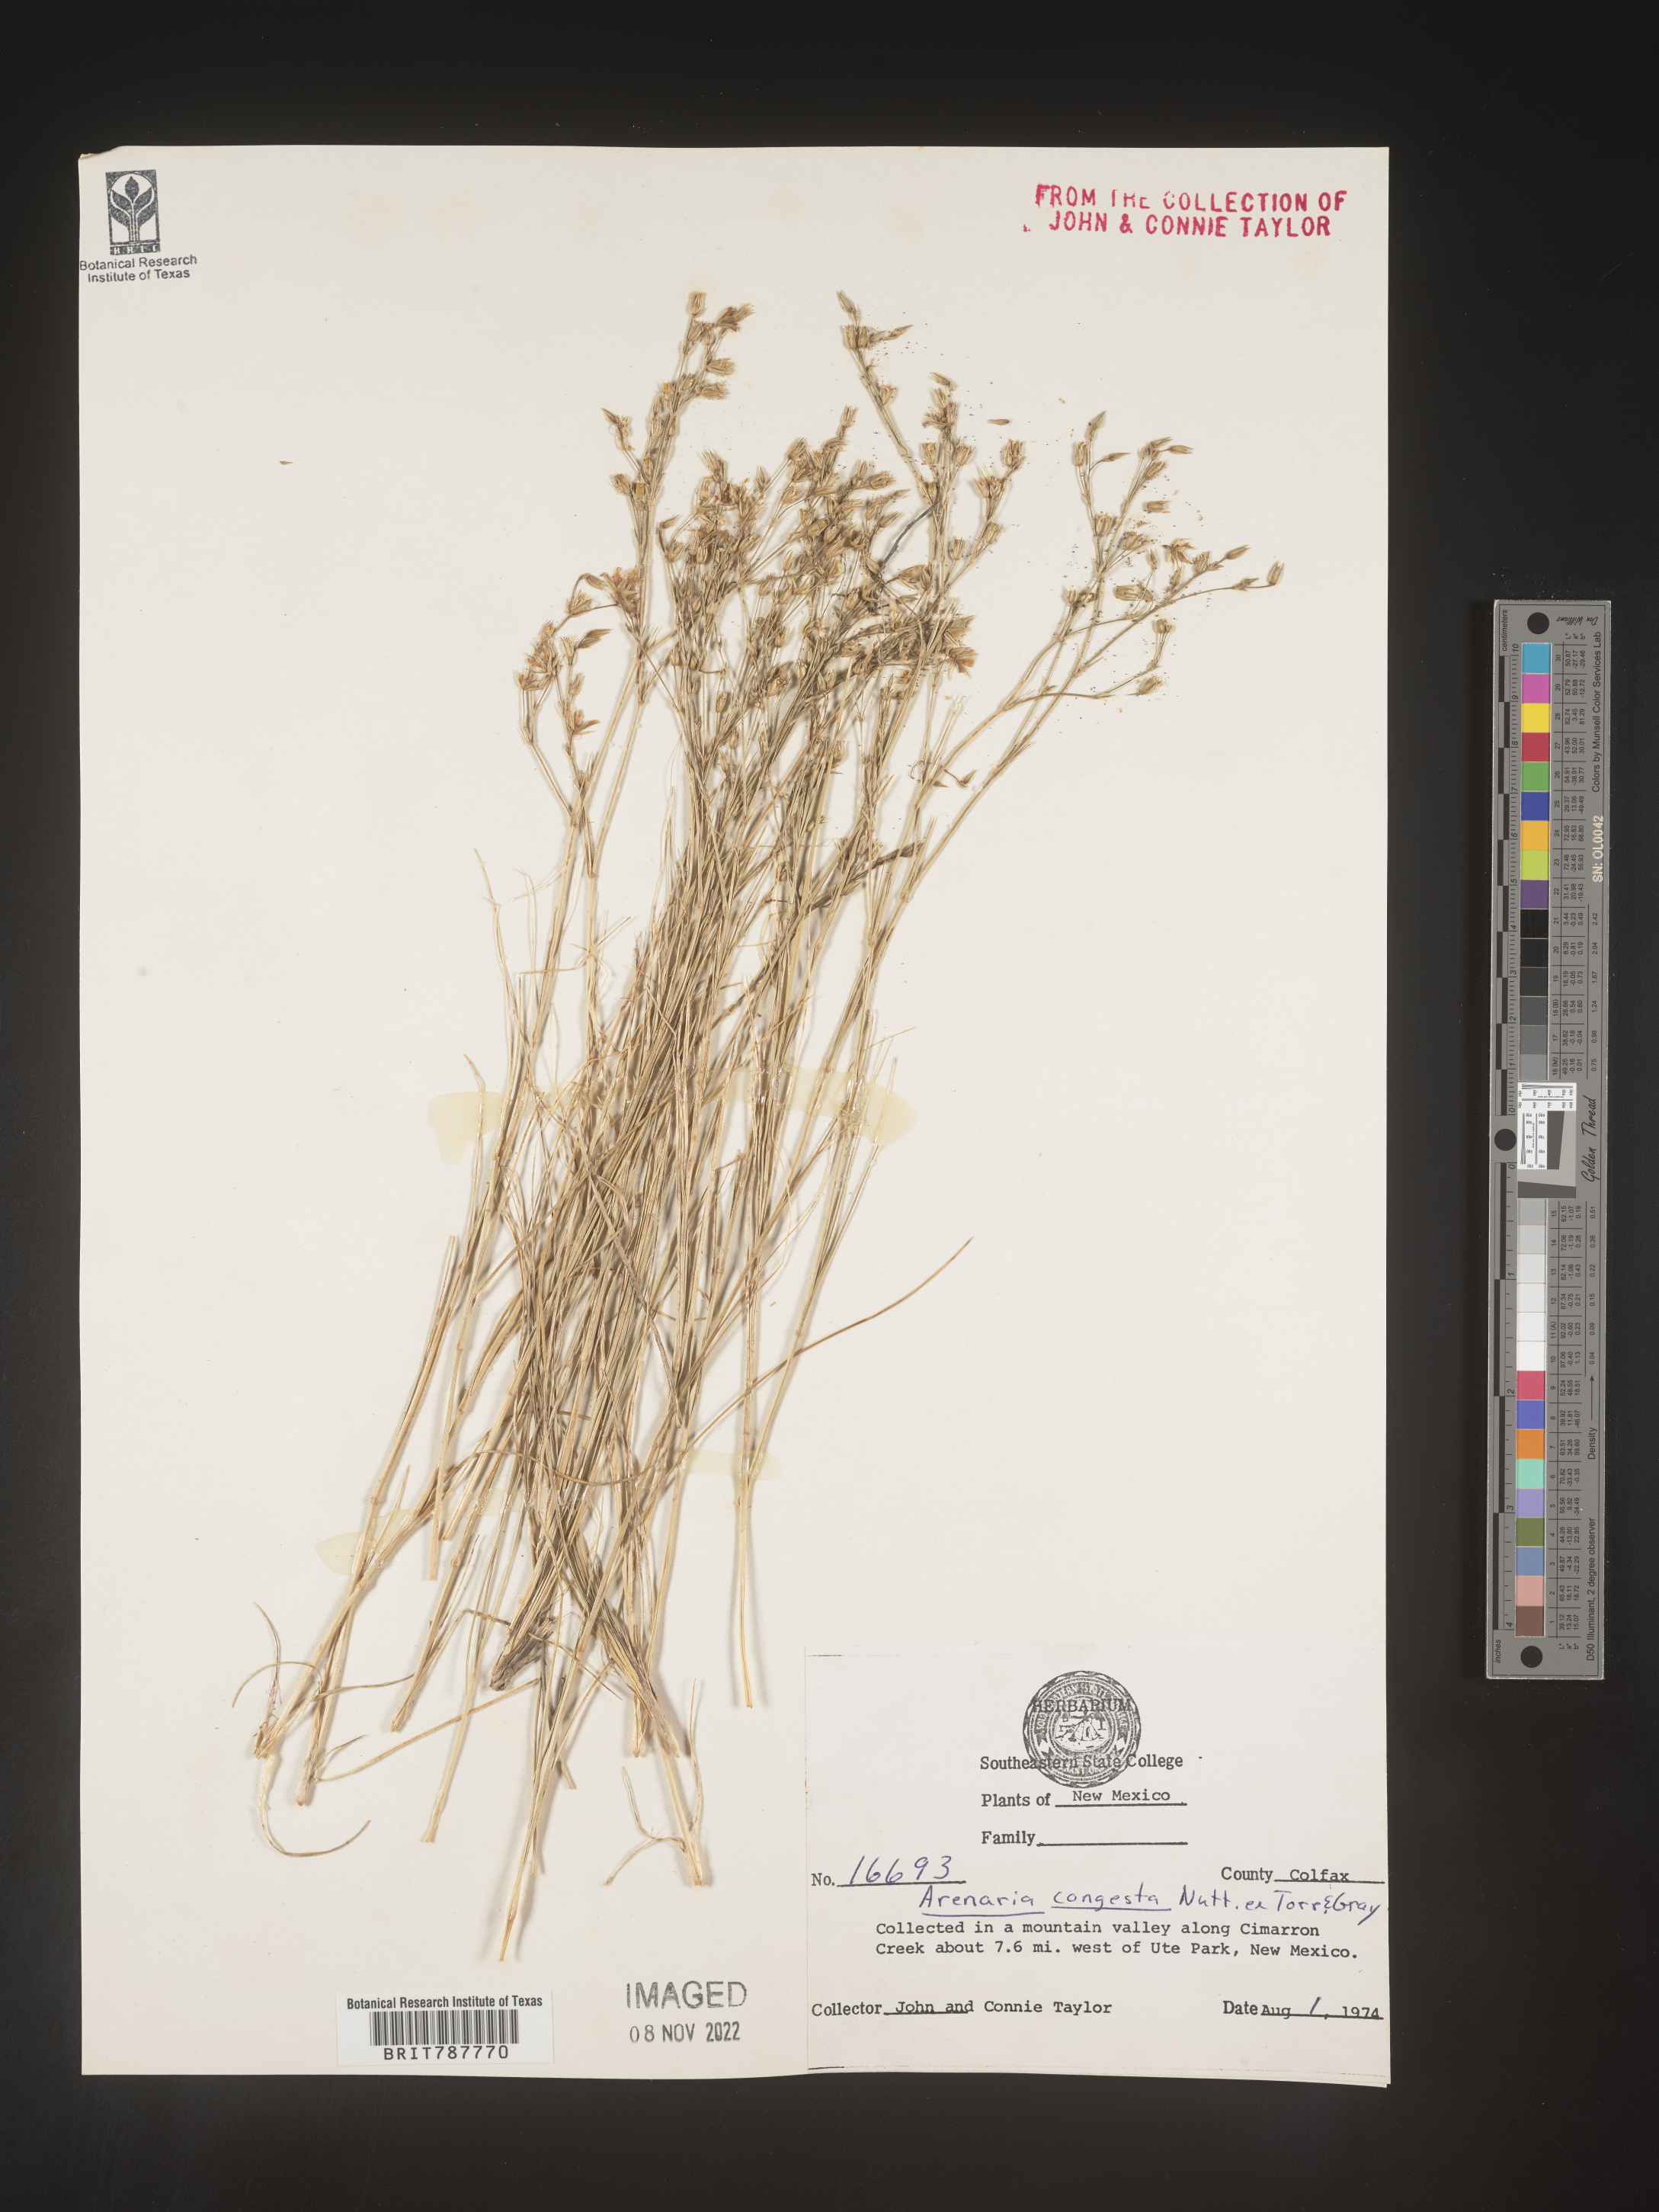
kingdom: Plantae
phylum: Tracheophyta
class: Magnoliopsida
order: Caryophyllales
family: Caryophyllaceae
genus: Eremogone
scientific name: Eremogone congesta
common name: Ballhead sandwort
